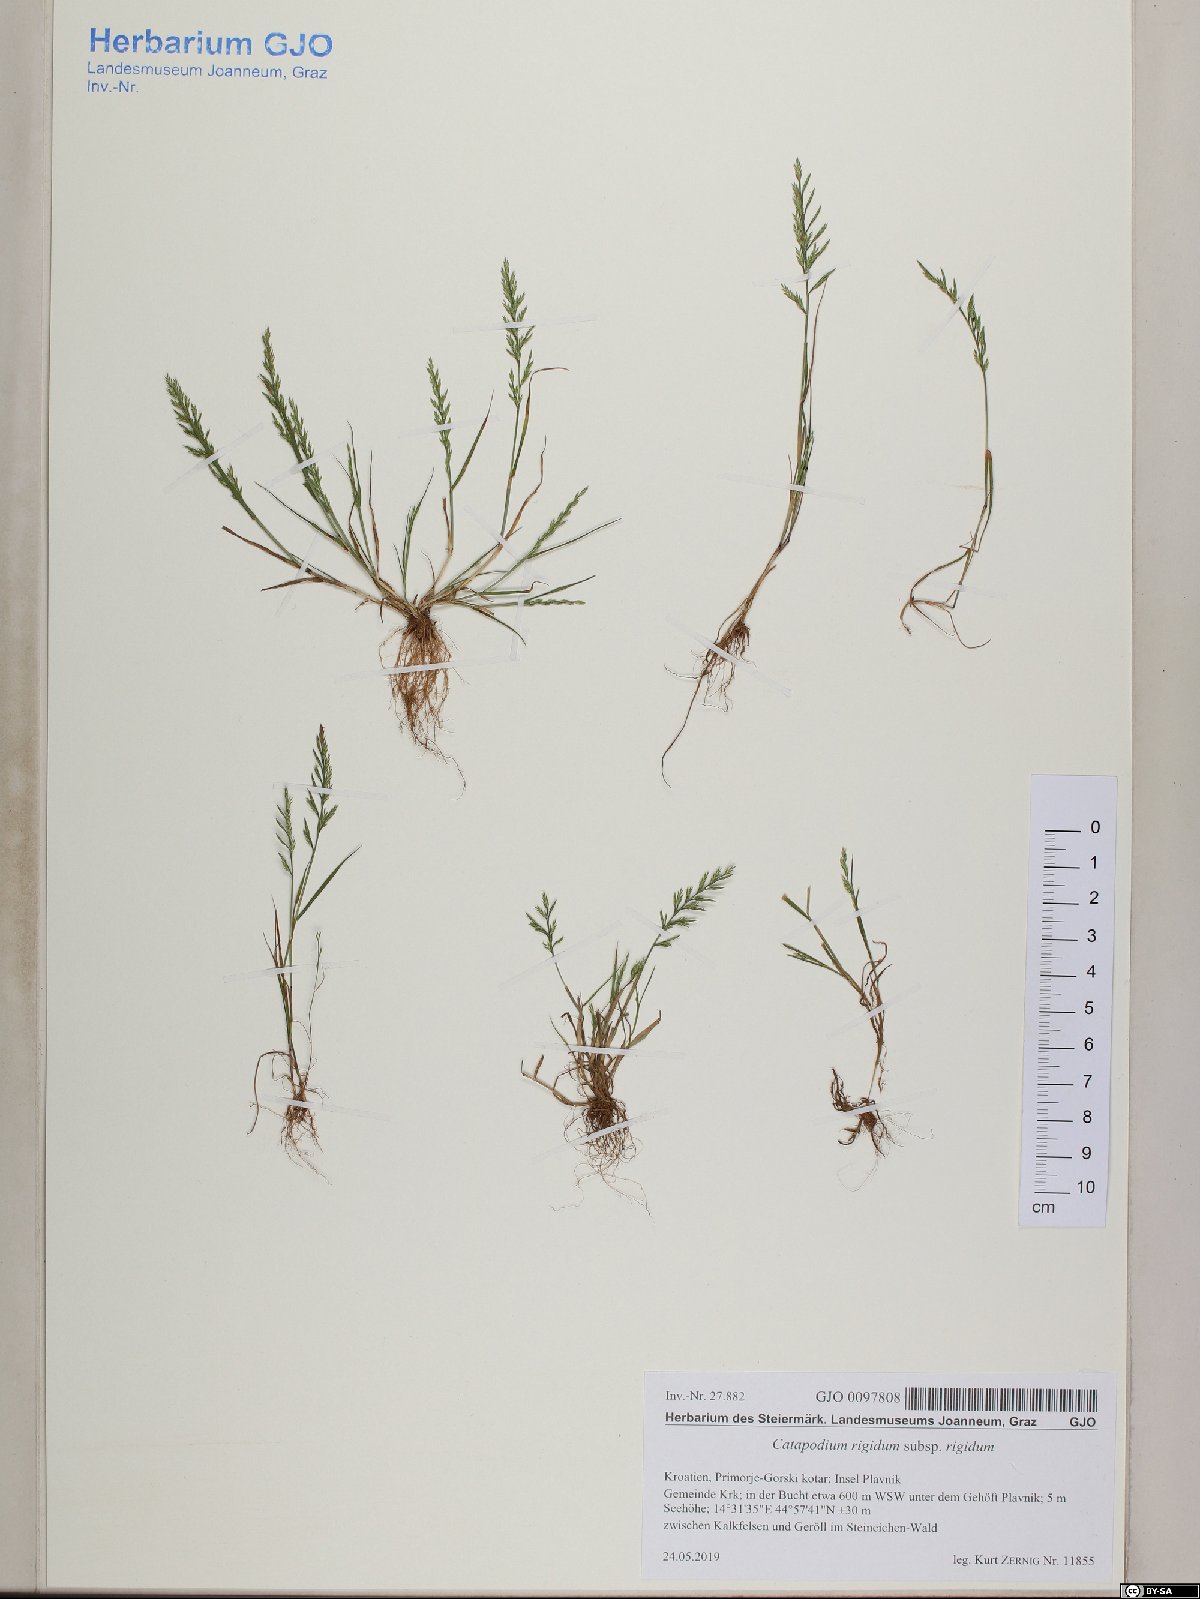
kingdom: Plantae
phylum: Tracheophyta
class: Liliopsida
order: Poales
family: Poaceae
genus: Catapodium
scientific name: Catapodium rigidum
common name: Fern-grass
